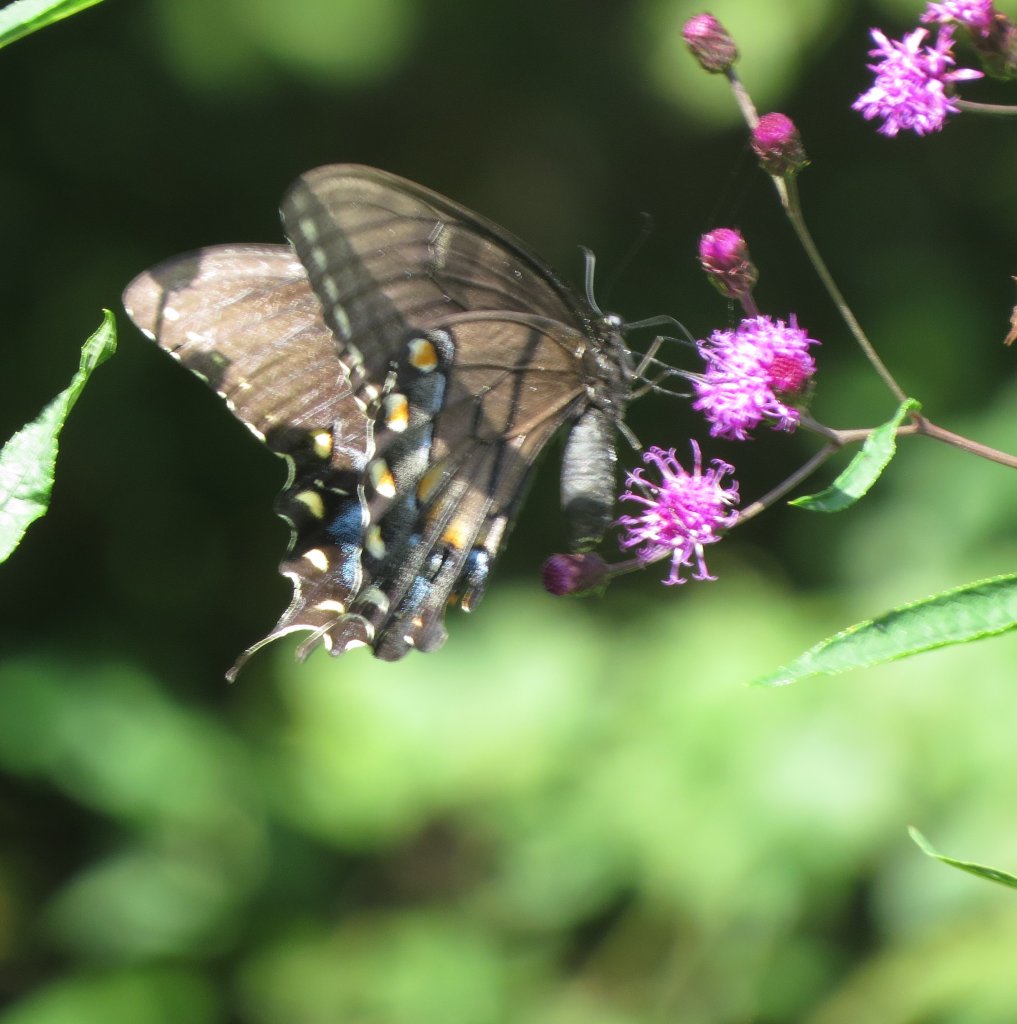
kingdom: Animalia
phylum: Arthropoda
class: Insecta
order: Lepidoptera
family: Papilionidae
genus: Pterourus
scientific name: Pterourus glaucus
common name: Eastern Tiger Swallowtail
